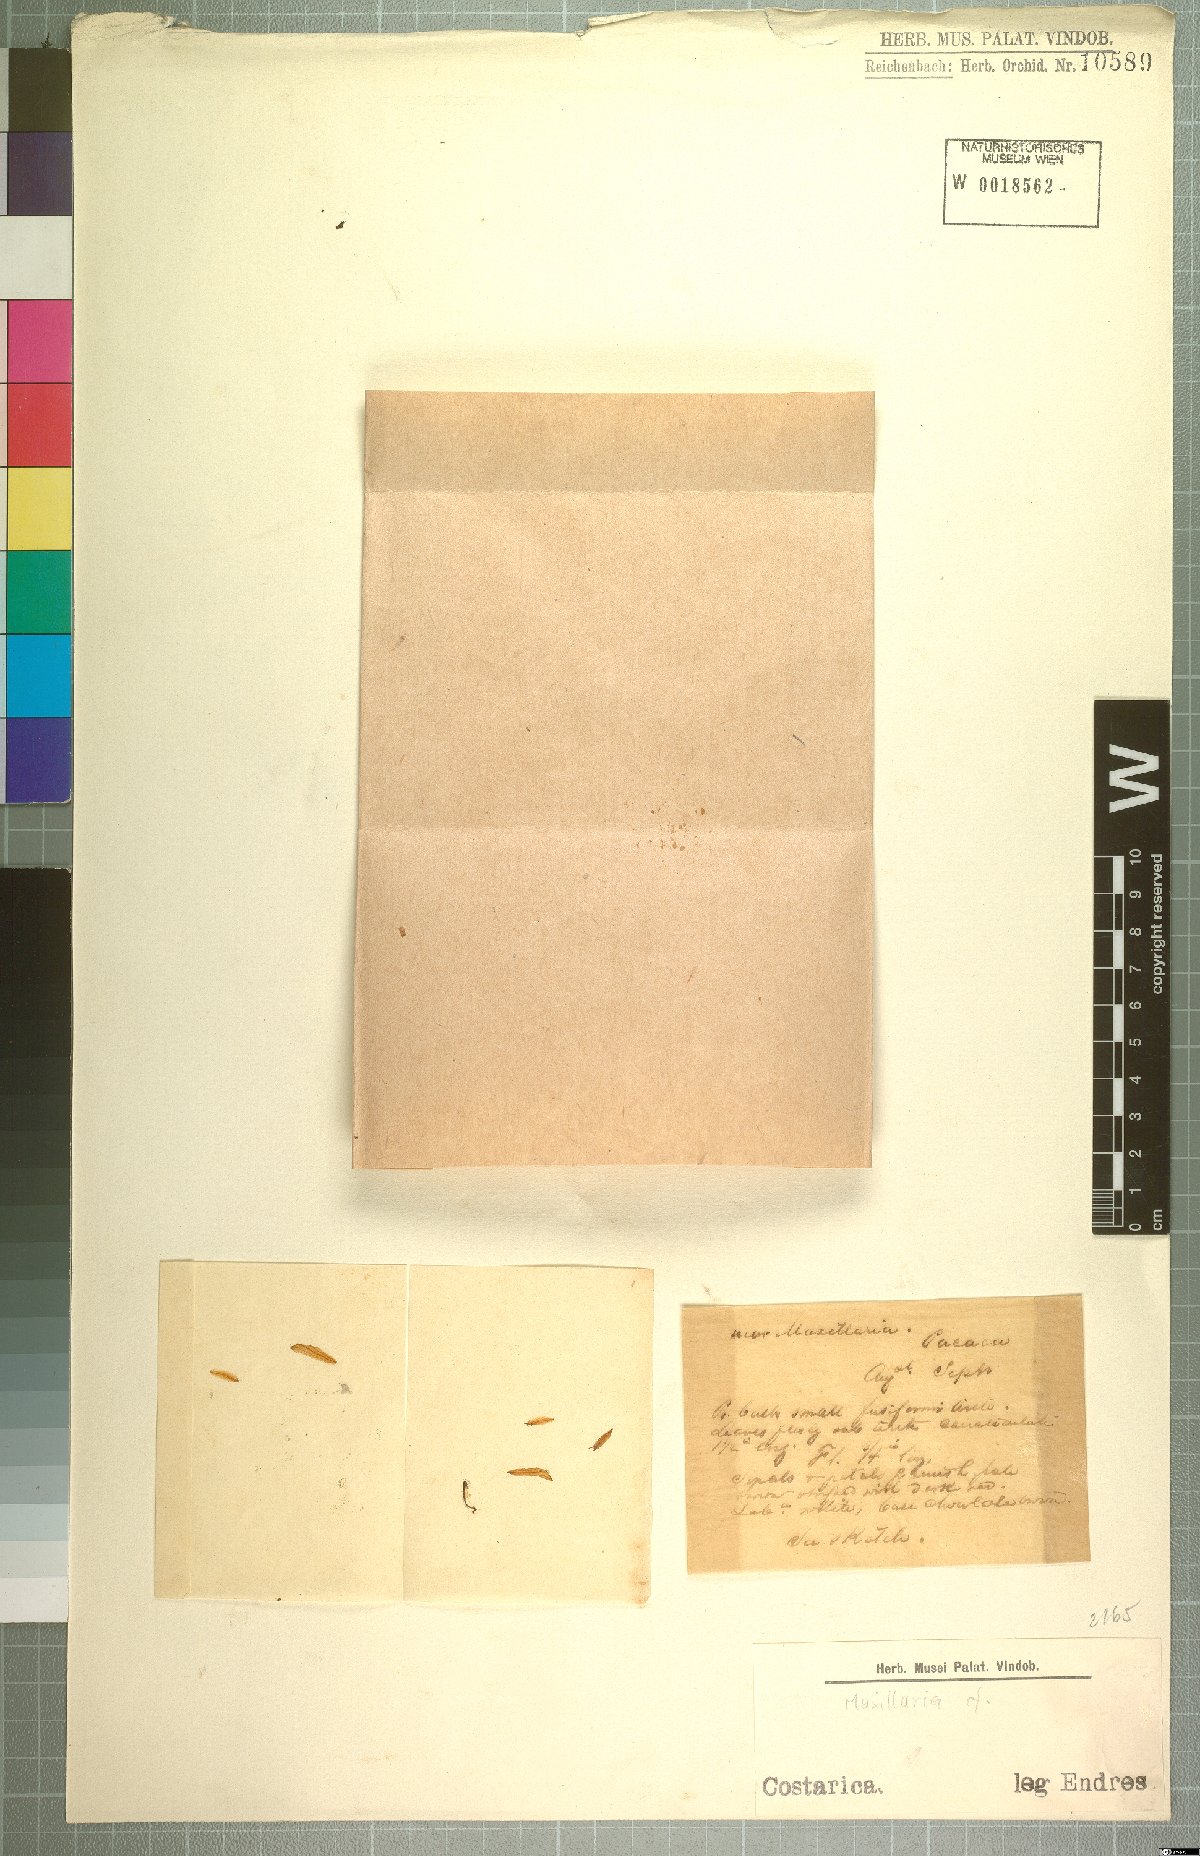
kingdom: Plantae
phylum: Tracheophyta
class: Liliopsida
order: Asparagales
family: Orchidaceae
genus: Maxillaria
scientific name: Maxillaria
